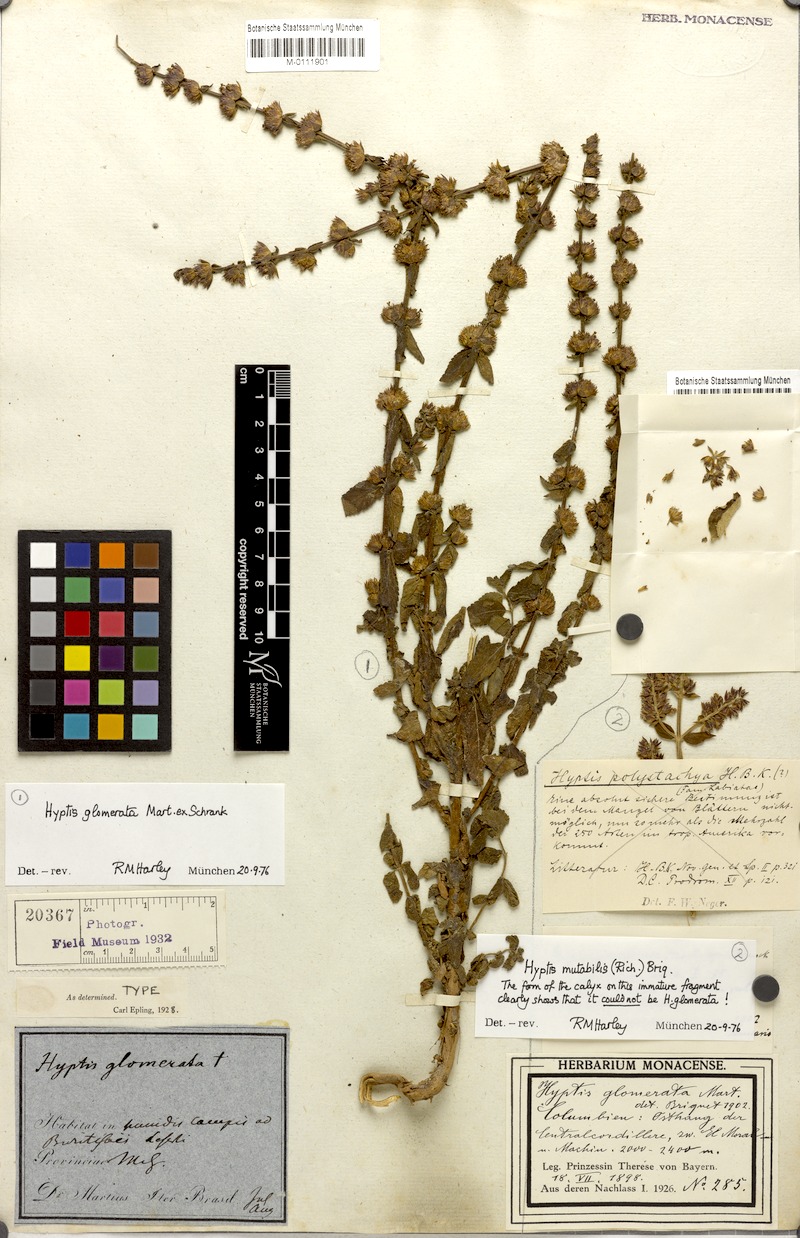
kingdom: Plantae
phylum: Tracheophyta
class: Magnoliopsida
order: Lamiales
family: Lamiaceae
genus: Cantinoa
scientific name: Cantinoa mutabilis
